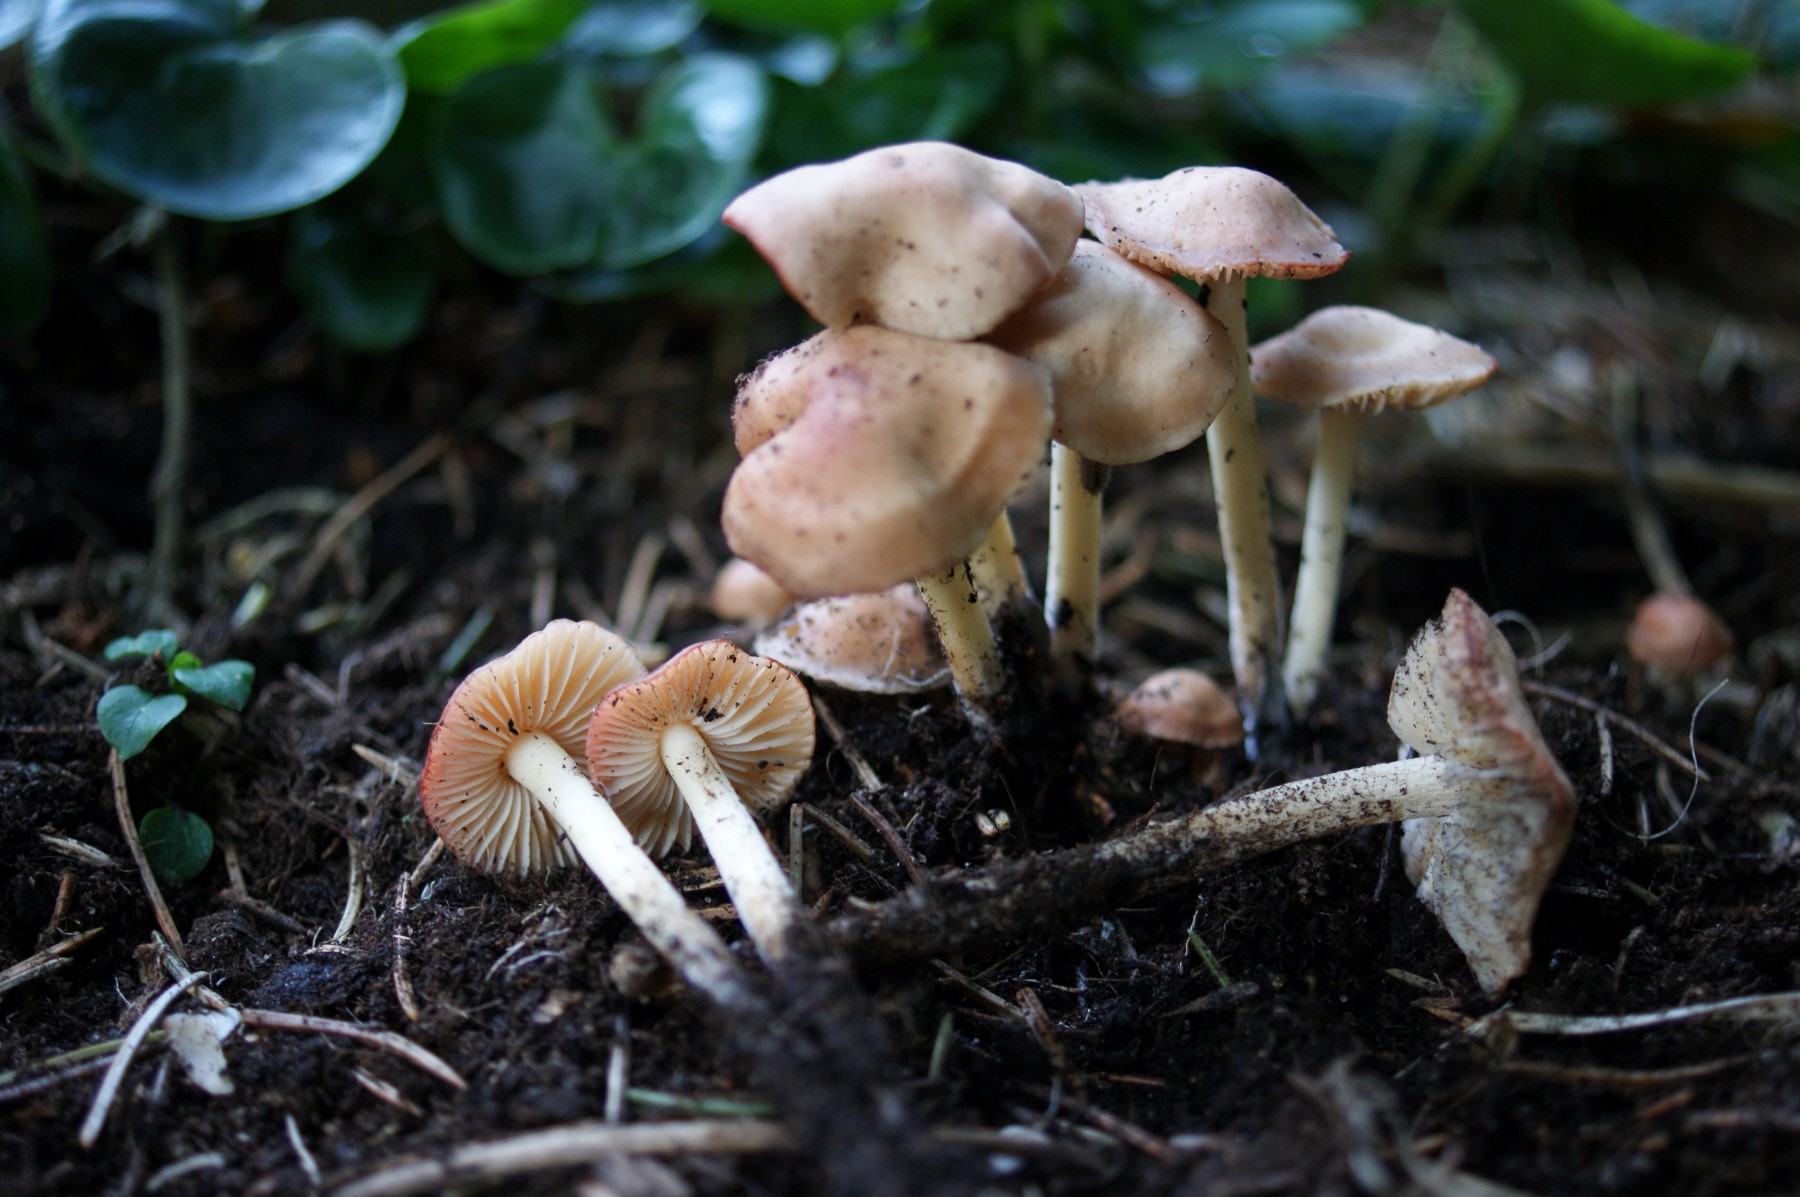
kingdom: Fungi
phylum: Basidiomycota
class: Agaricomycetes
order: Agaricales
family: Marasmiaceae
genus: Marasmius
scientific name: Marasmius oreades
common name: elledans-bruskhat
